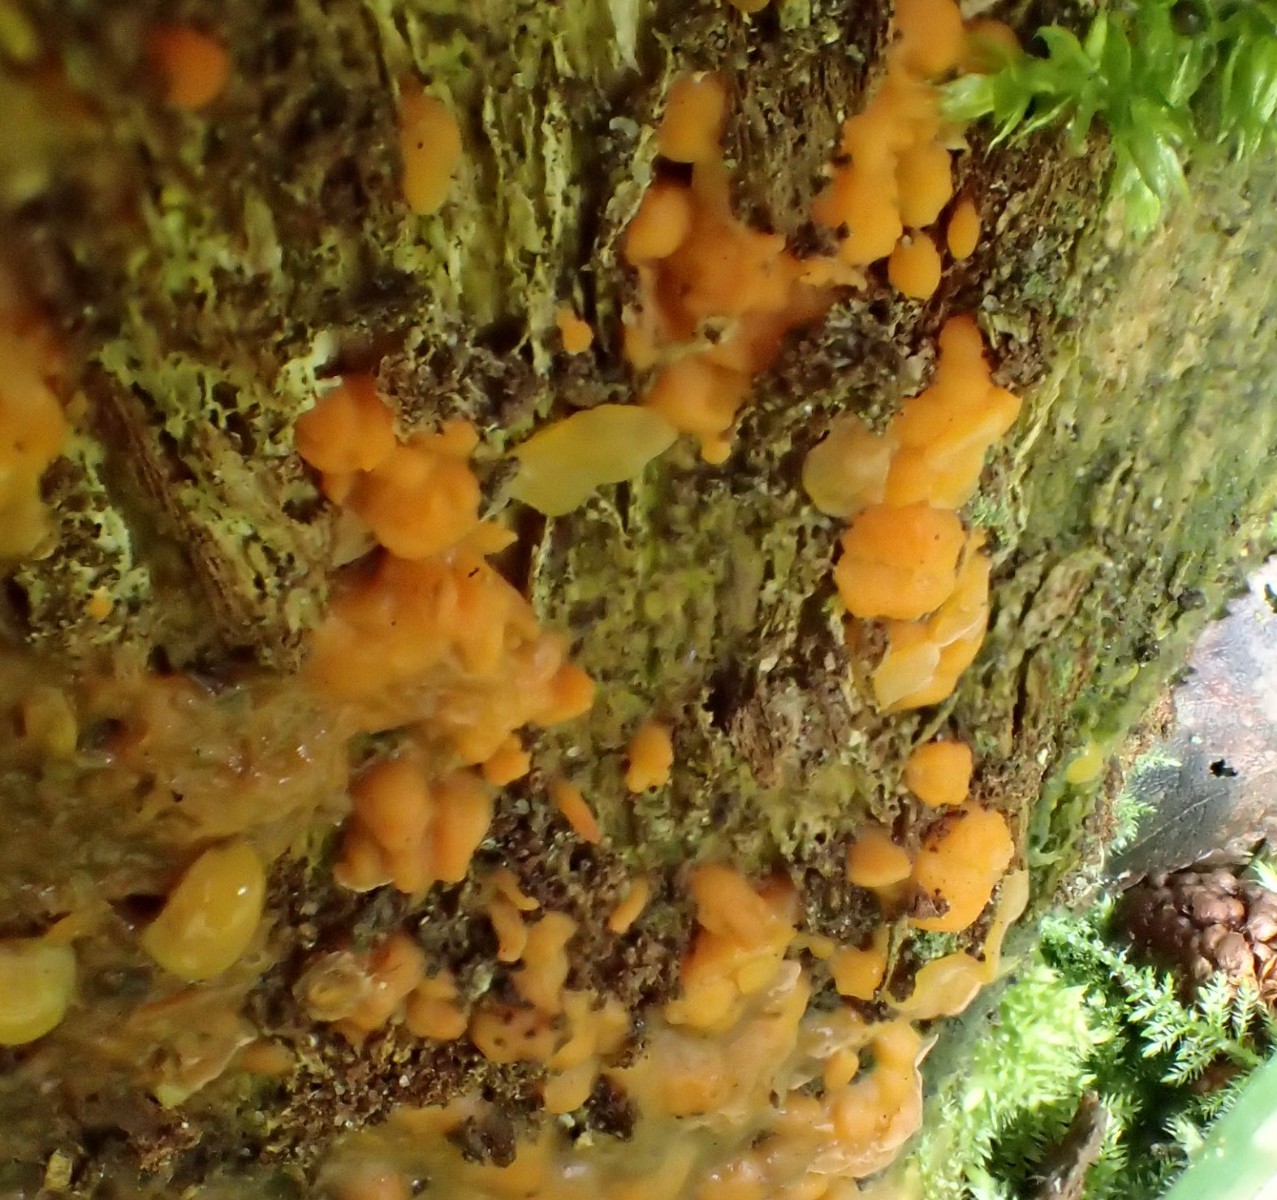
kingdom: Fungi
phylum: Basidiomycota
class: Dacrymycetes
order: Dacrymycetales
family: Dacrymycetaceae
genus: Dacrymyces
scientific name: Dacrymyces stillatus
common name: almindelig tåresvamp
